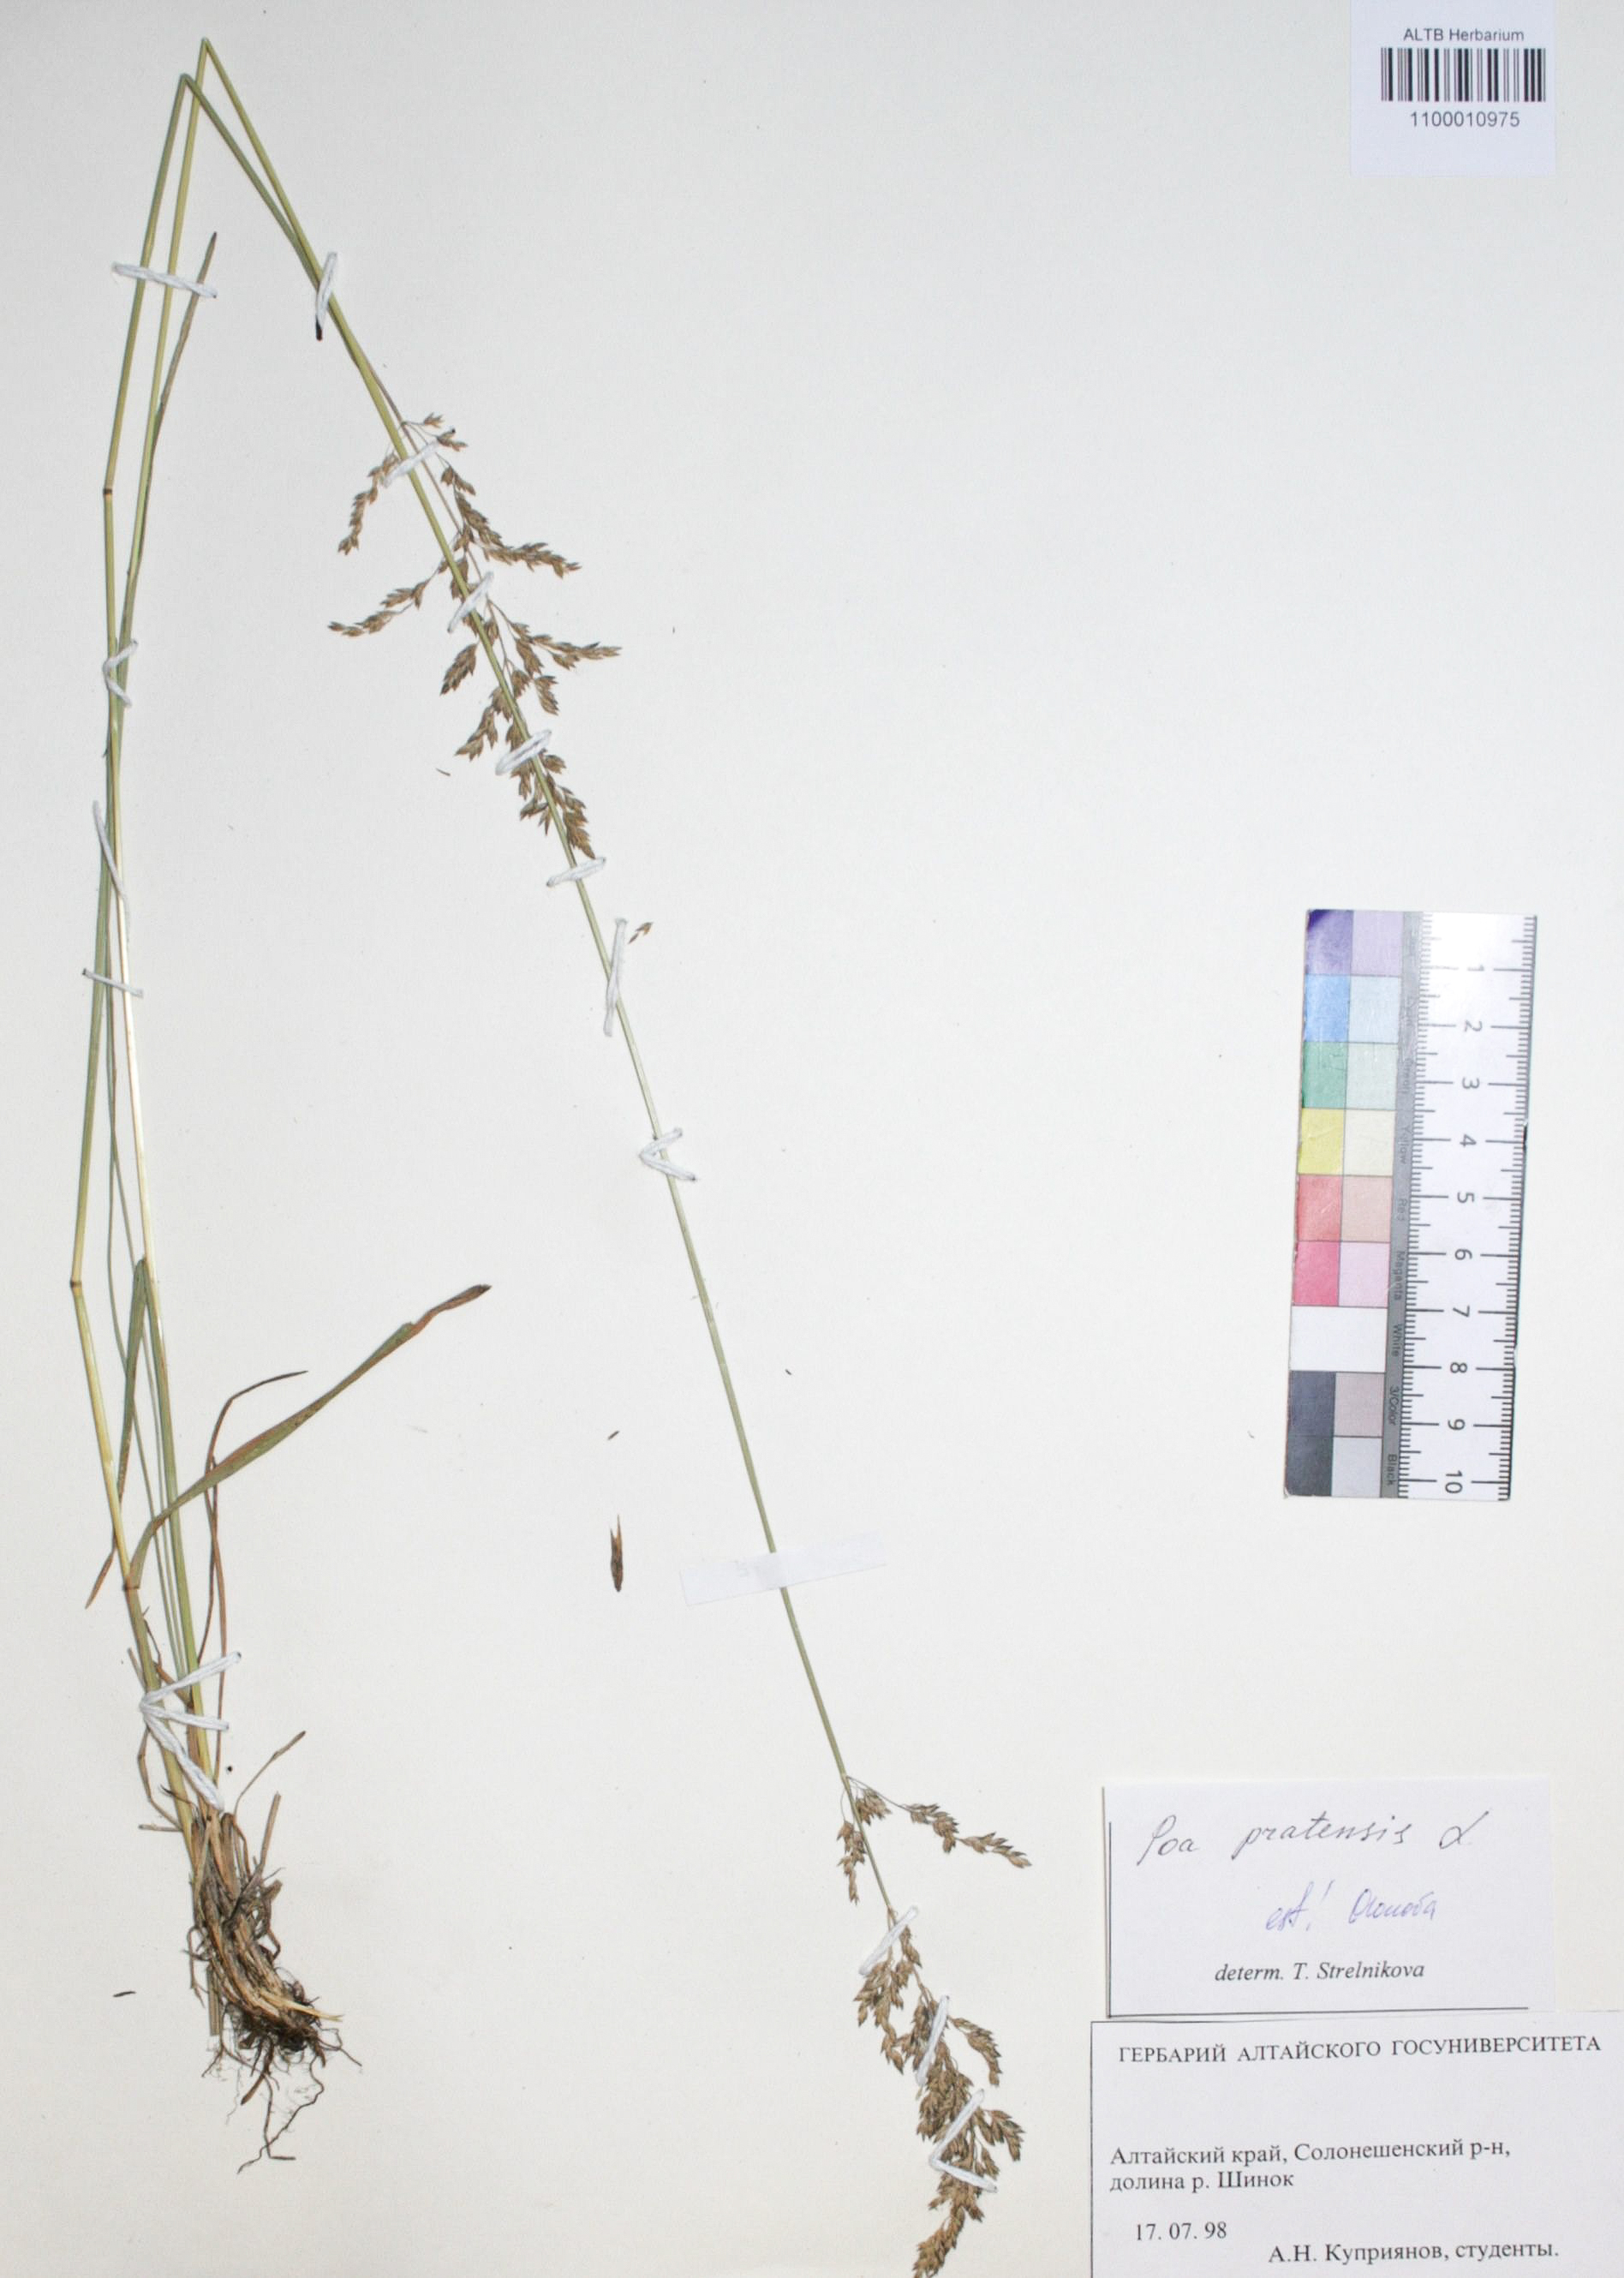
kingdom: Plantae
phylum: Tracheophyta
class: Liliopsida
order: Poales
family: Poaceae
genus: Poa
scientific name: Poa pratensis
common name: Kentucky bluegrass
